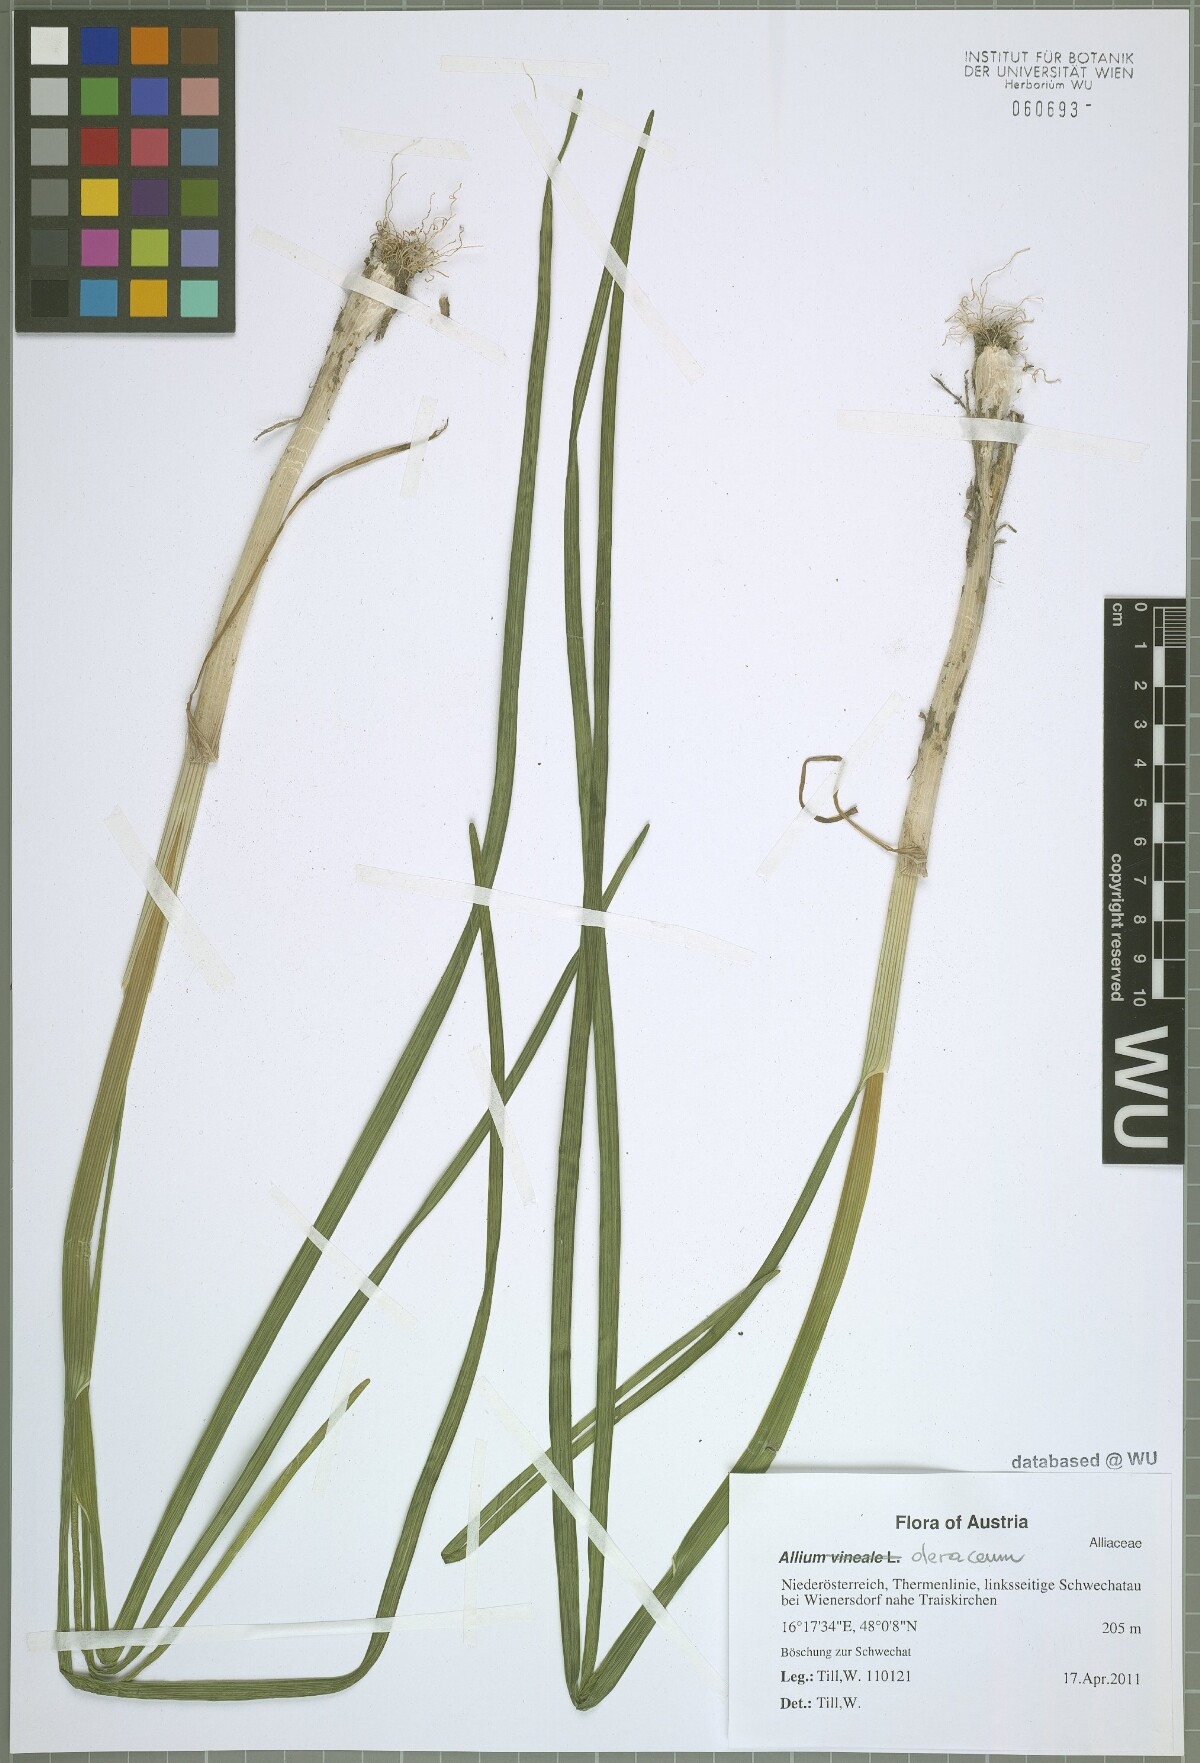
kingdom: Plantae
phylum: Tracheophyta
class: Liliopsida
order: Asparagales
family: Amaryllidaceae
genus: Allium
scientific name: Allium oleraceum
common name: Field garlic
